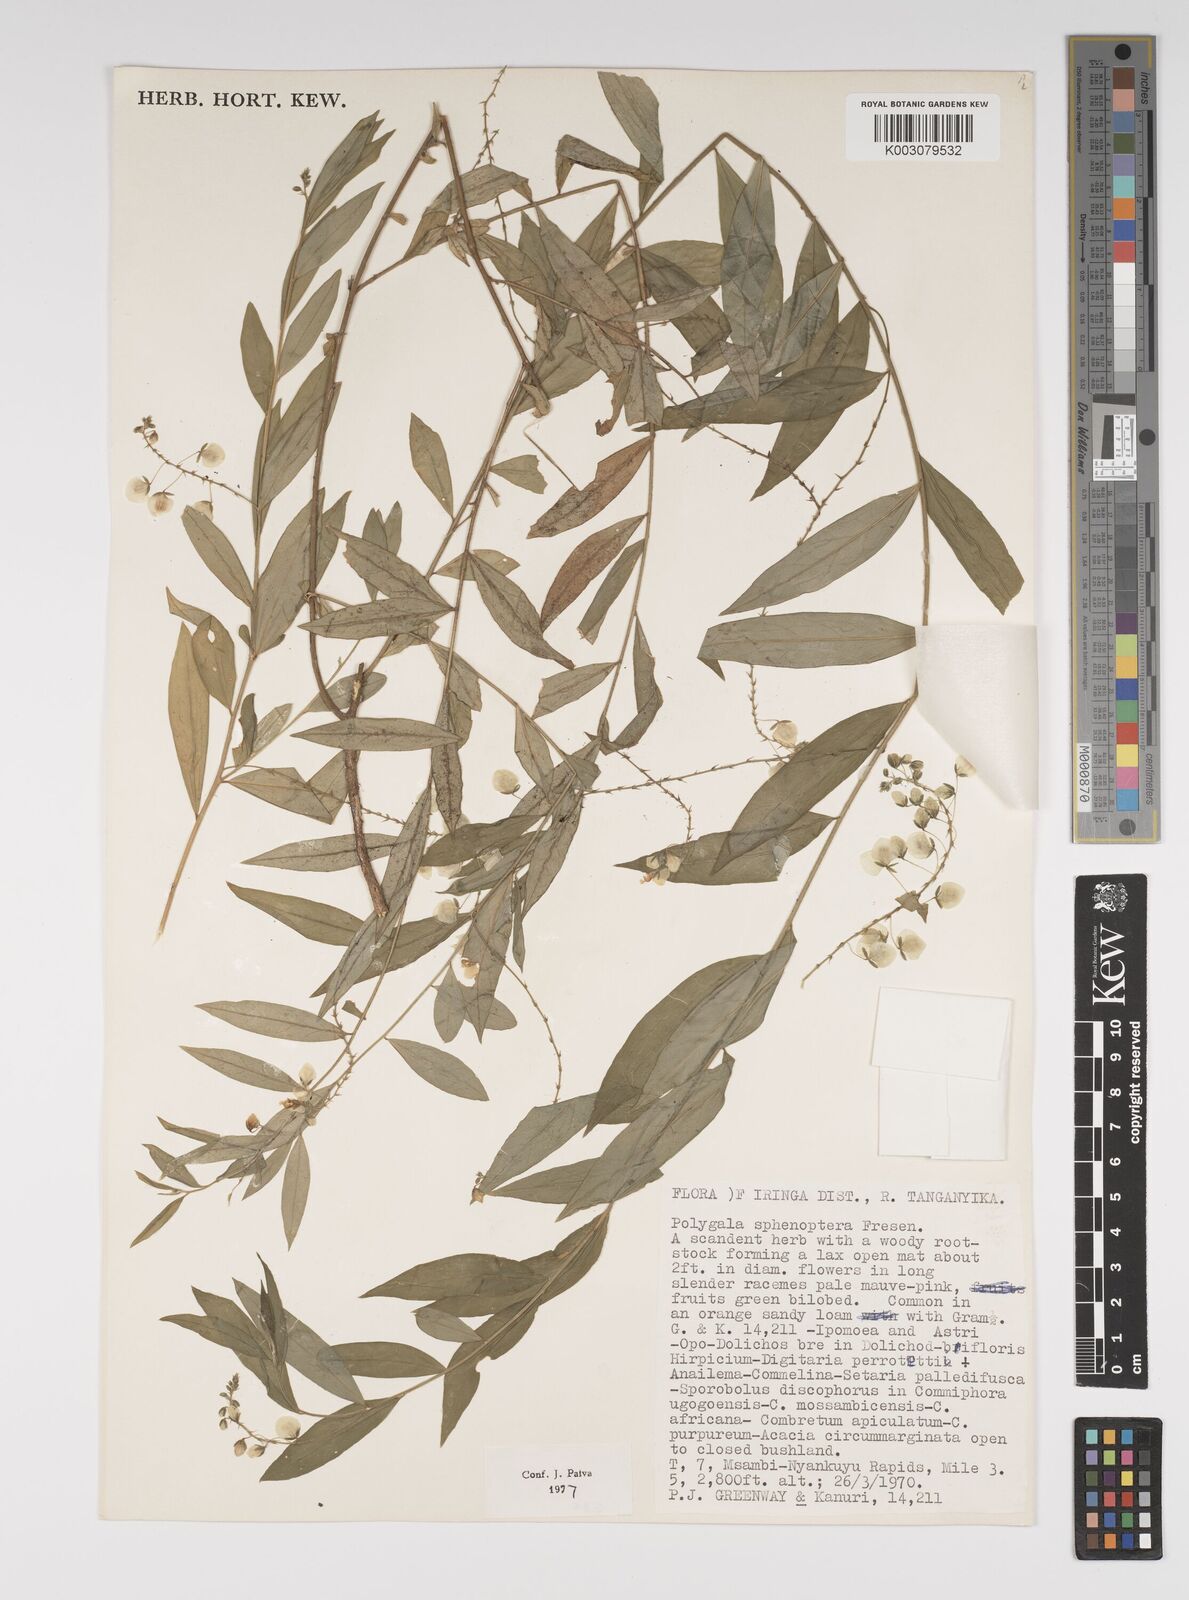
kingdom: Plantae
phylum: Tracheophyta
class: Magnoliopsida
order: Fabales
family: Polygalaceae
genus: Polygala
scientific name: Polygala sphenoptera
